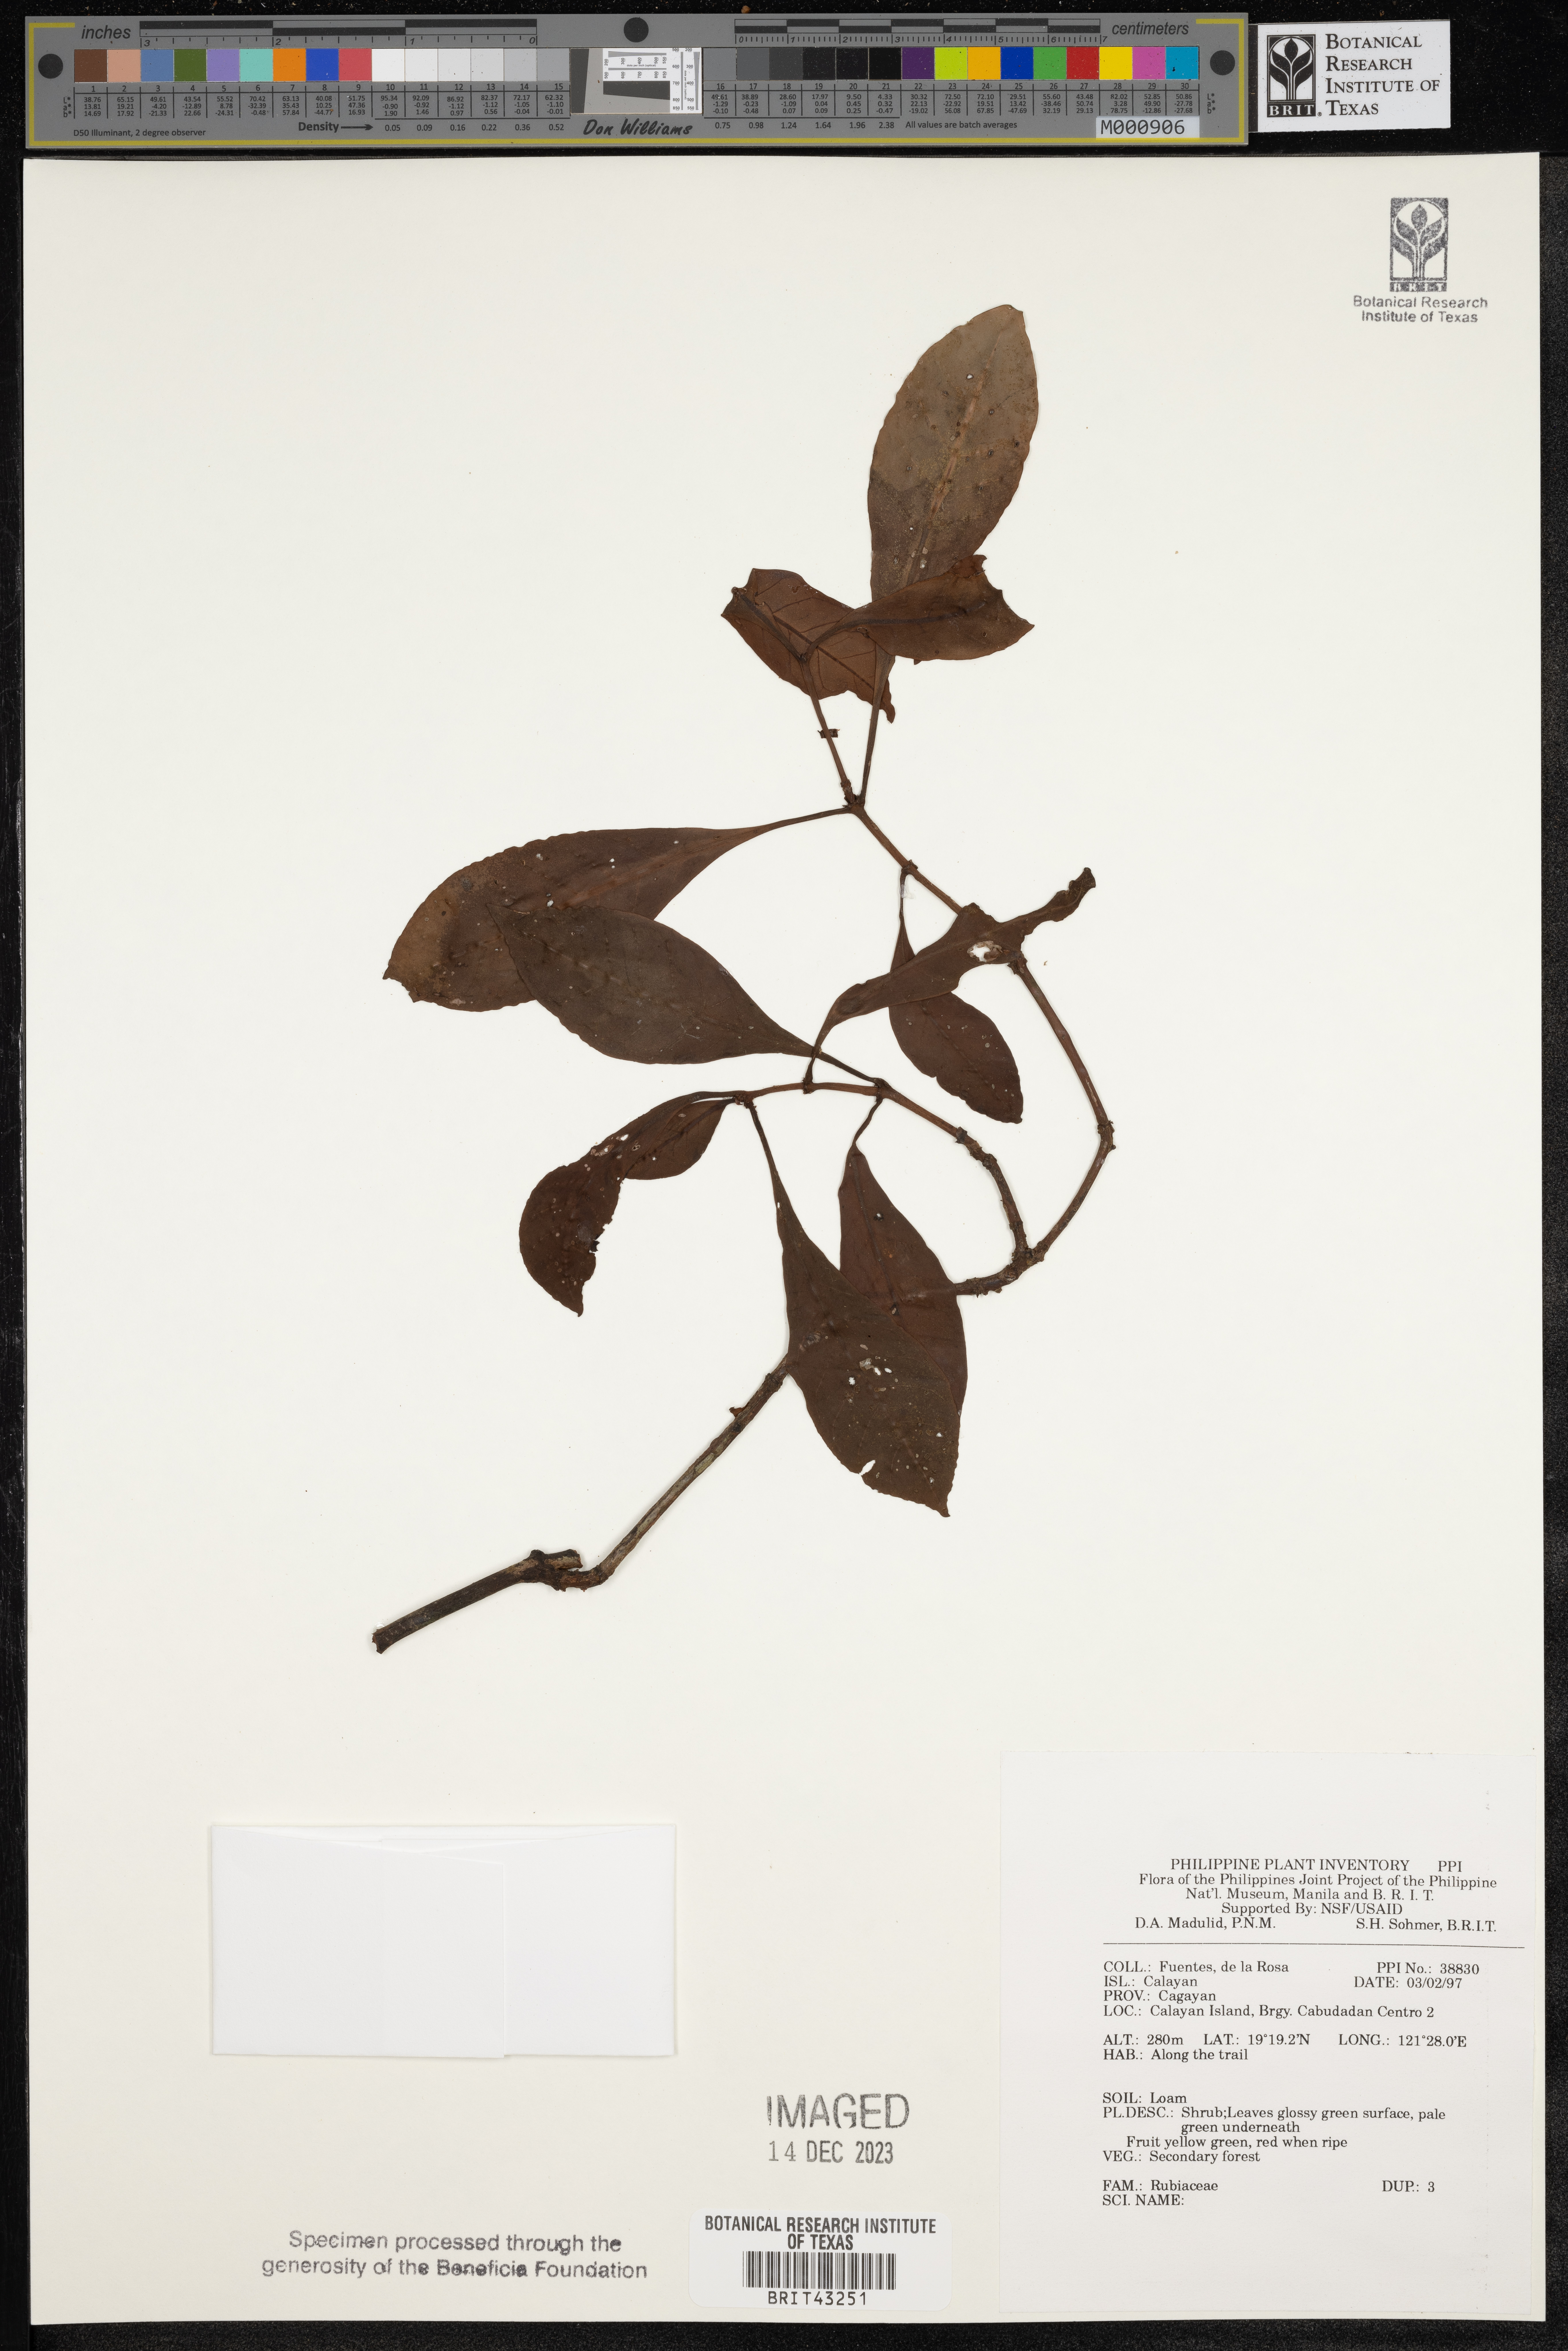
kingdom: Plantae
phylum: Tracheophyta
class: Magnoliopsida
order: Gentianales
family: Rubiaceae
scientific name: Rubiaceae
